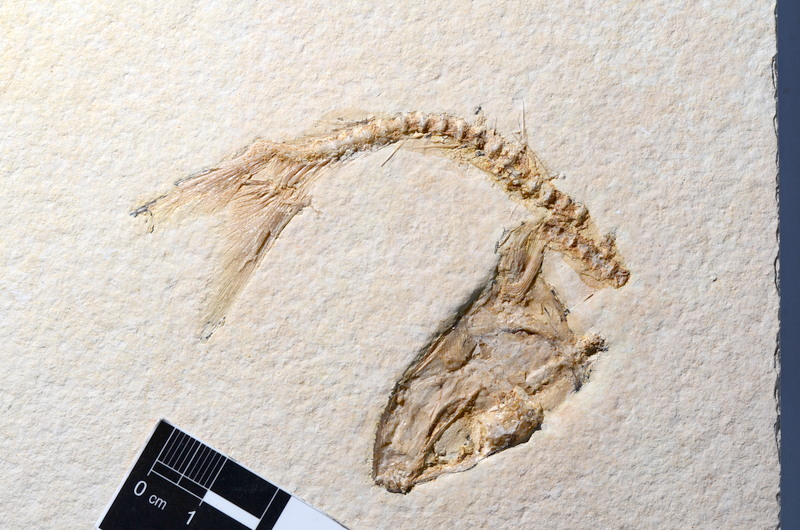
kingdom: Animalia
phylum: Chordata
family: Ascalaboidae
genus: Tharsis
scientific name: Tharsis dubius
